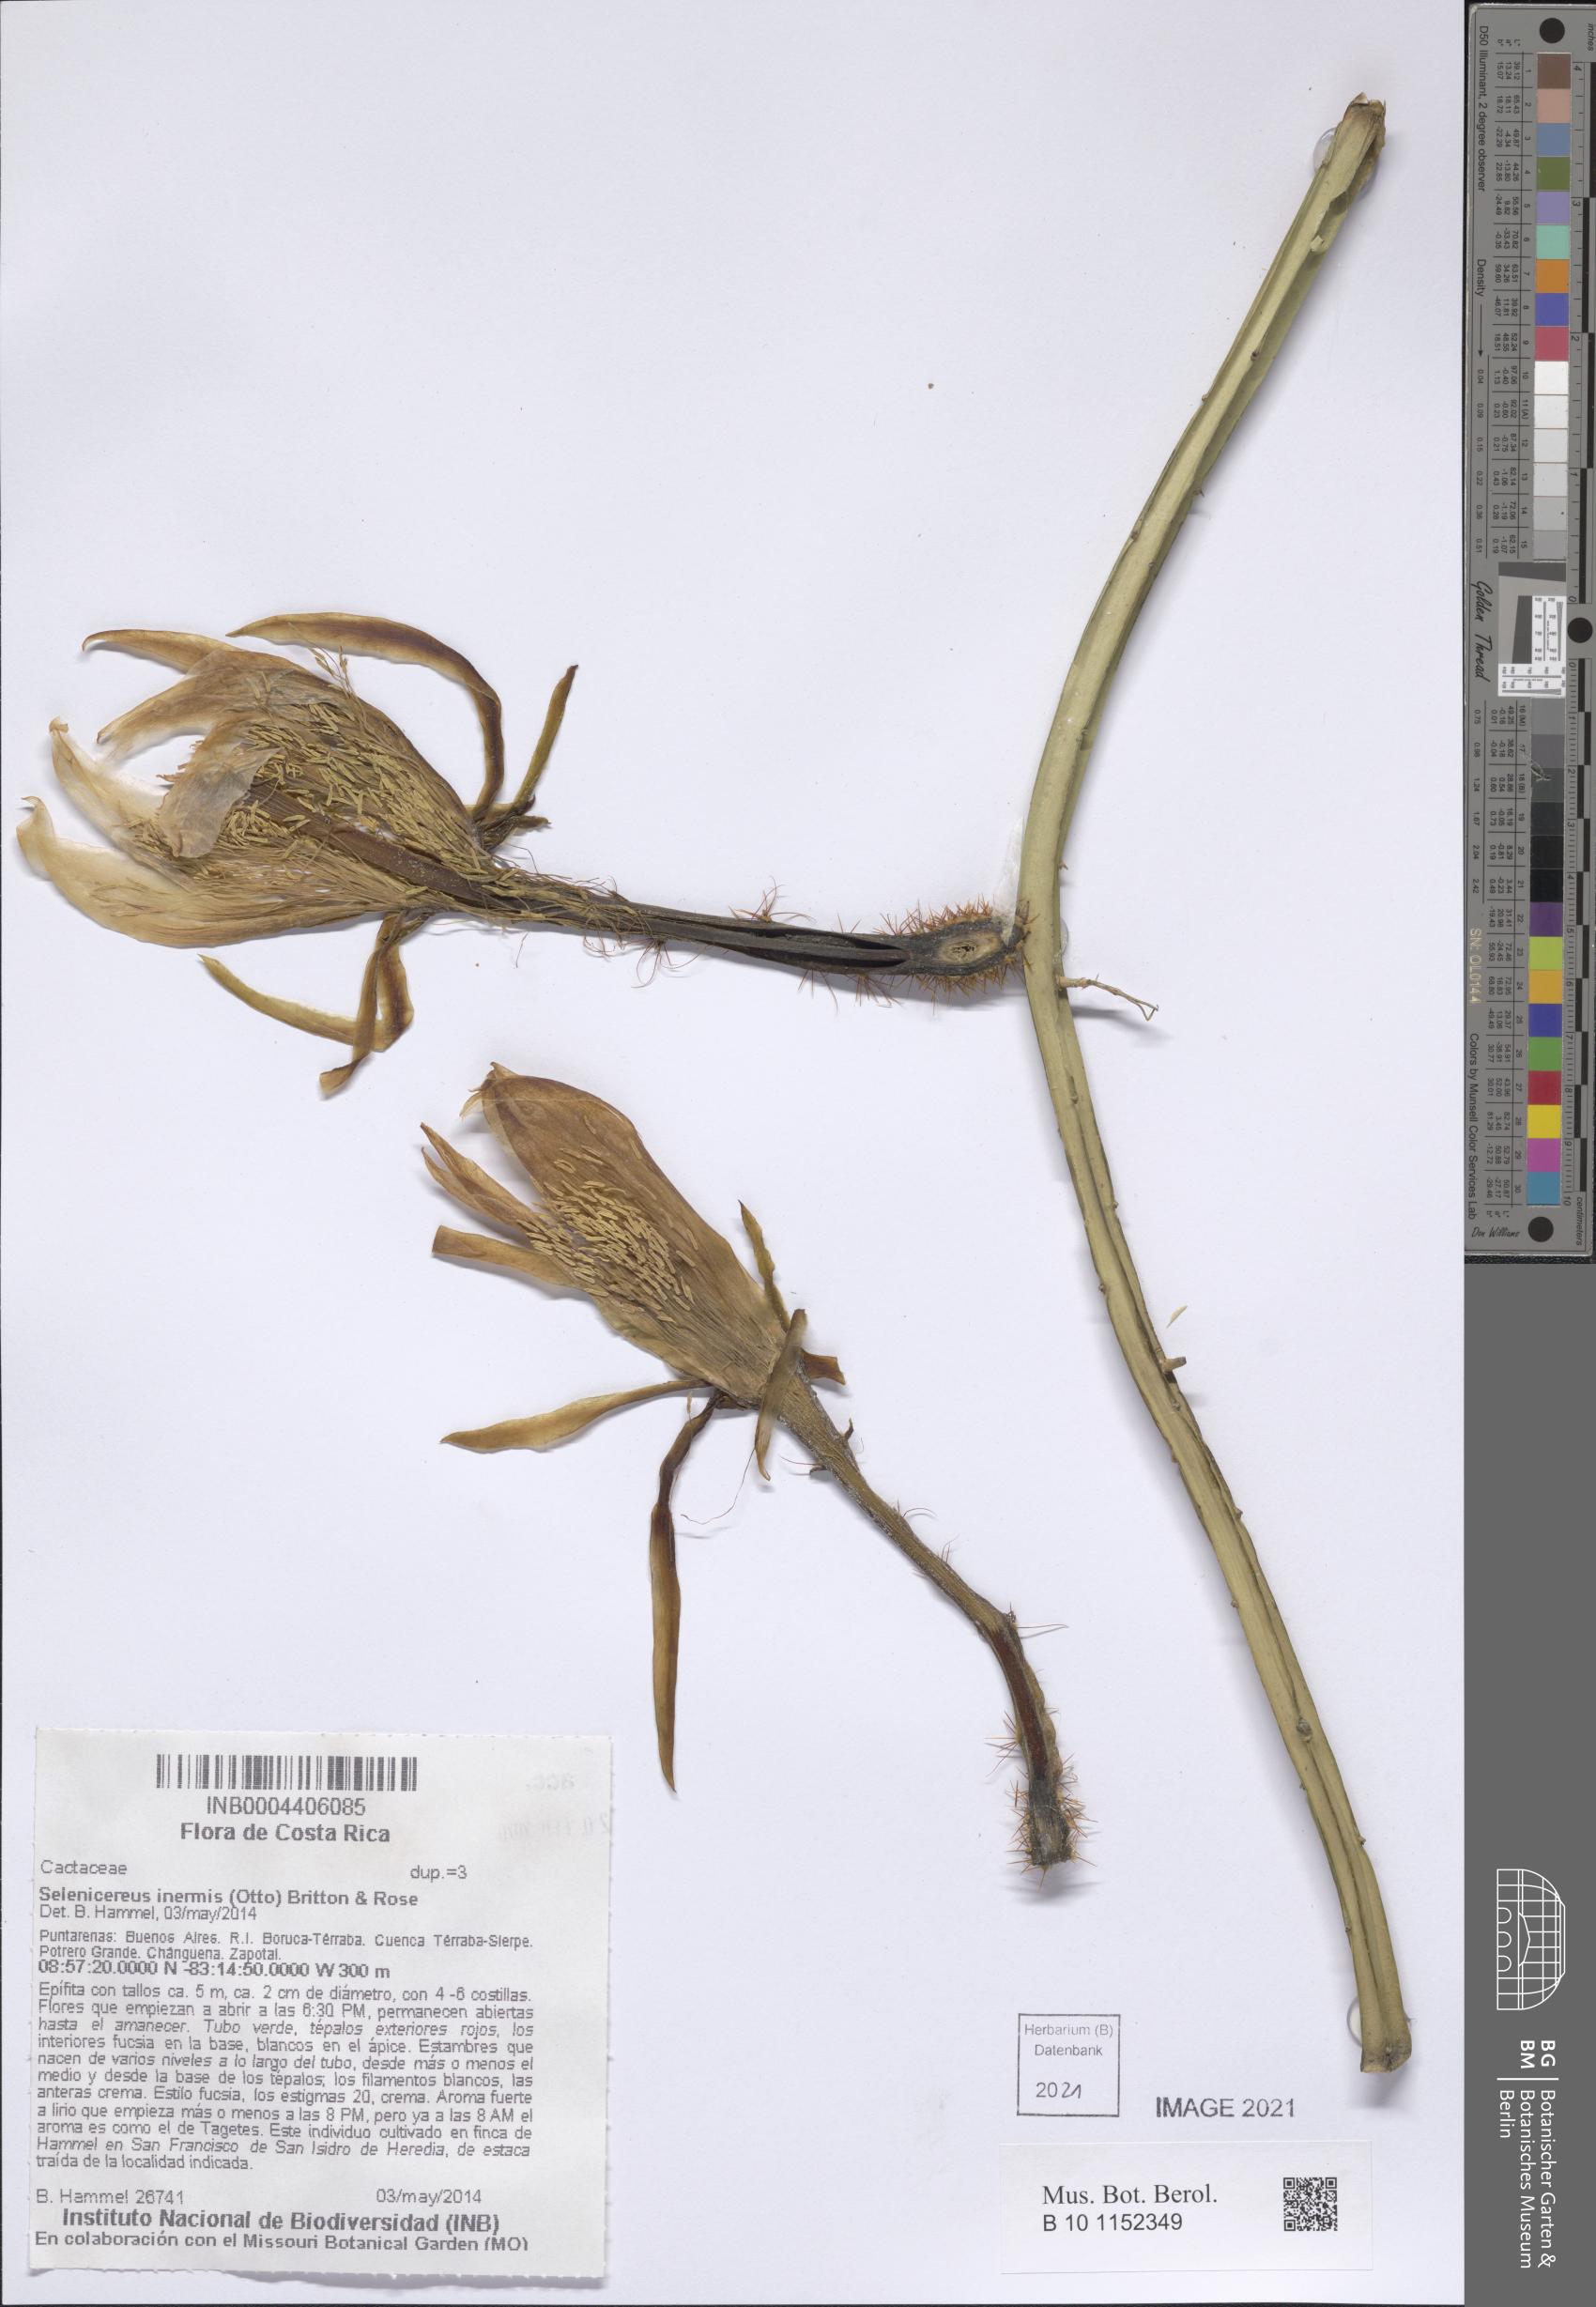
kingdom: Plantae
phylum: Tracheophyta
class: Magnoliopsida
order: Caryophyllales
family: Cactaceae
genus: Selenicereus
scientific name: Selenicereus inermis
